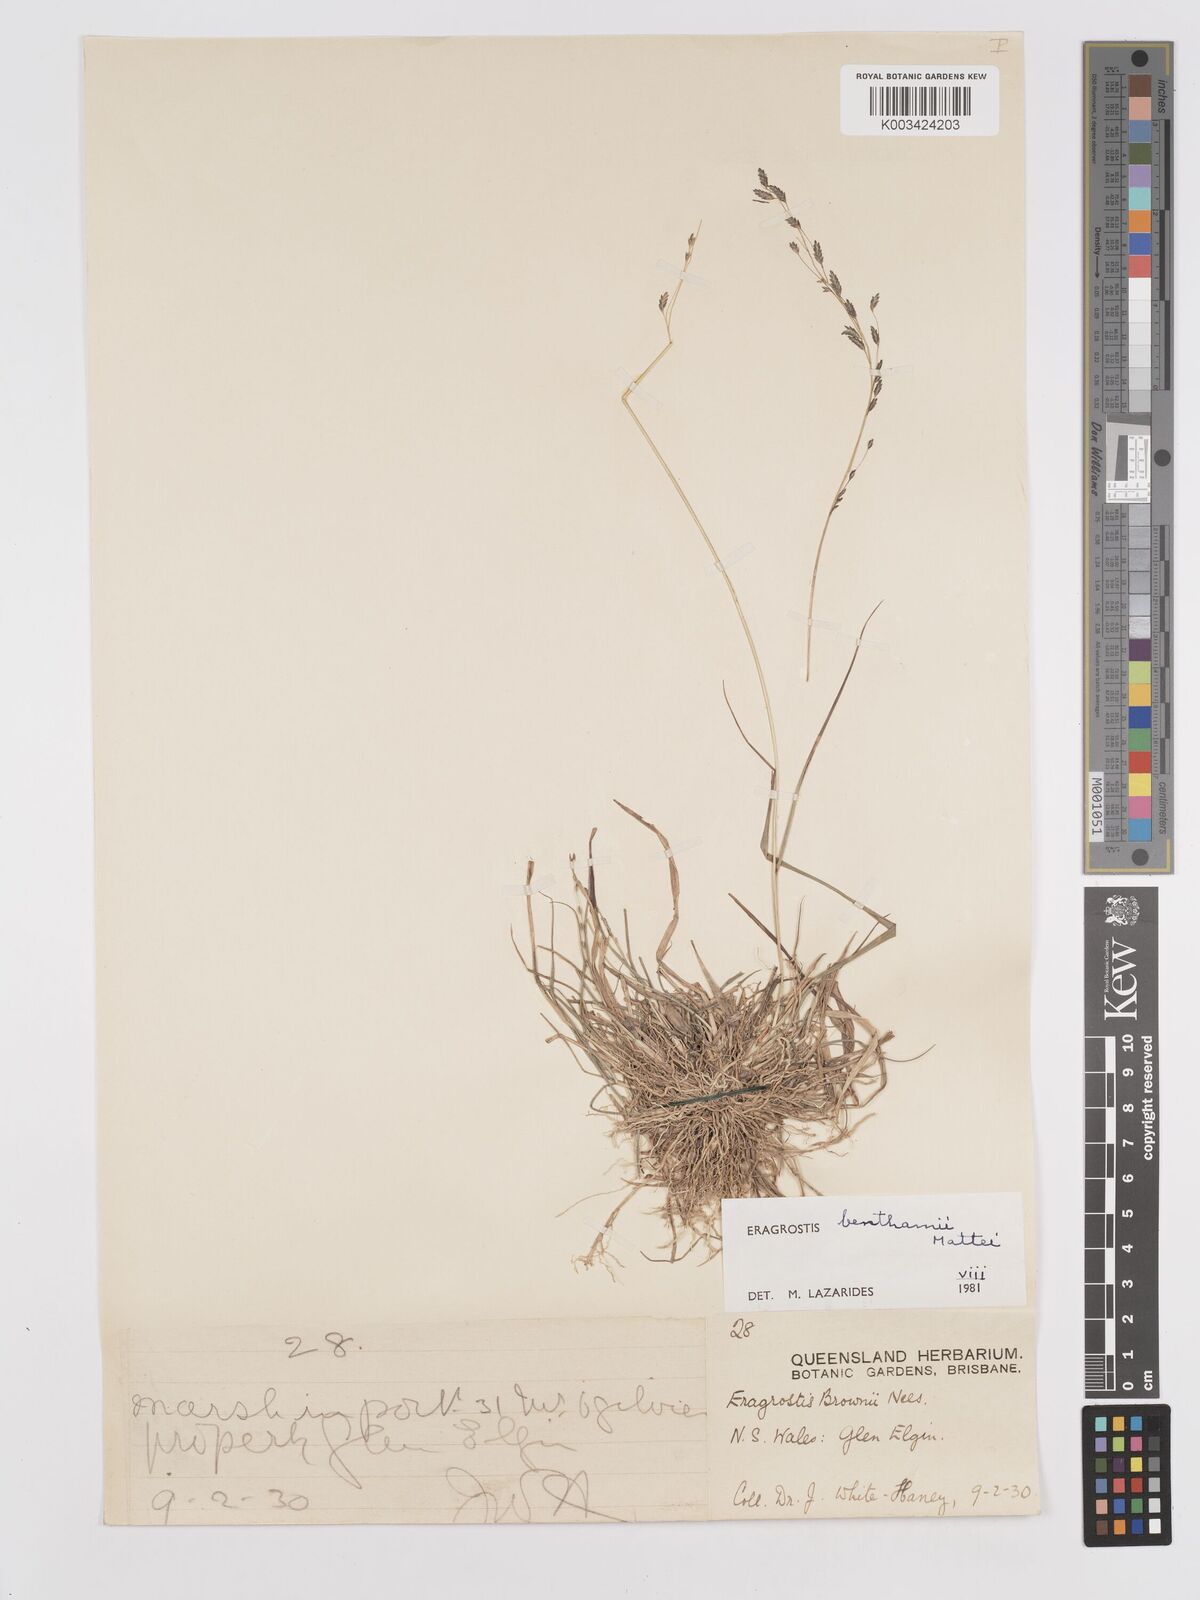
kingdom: Plantae
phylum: Tracheophyta
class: Liliopsida
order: Poales
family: Poaceae
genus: Eragrostis
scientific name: Eragrostis brownii
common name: Lovegrass
